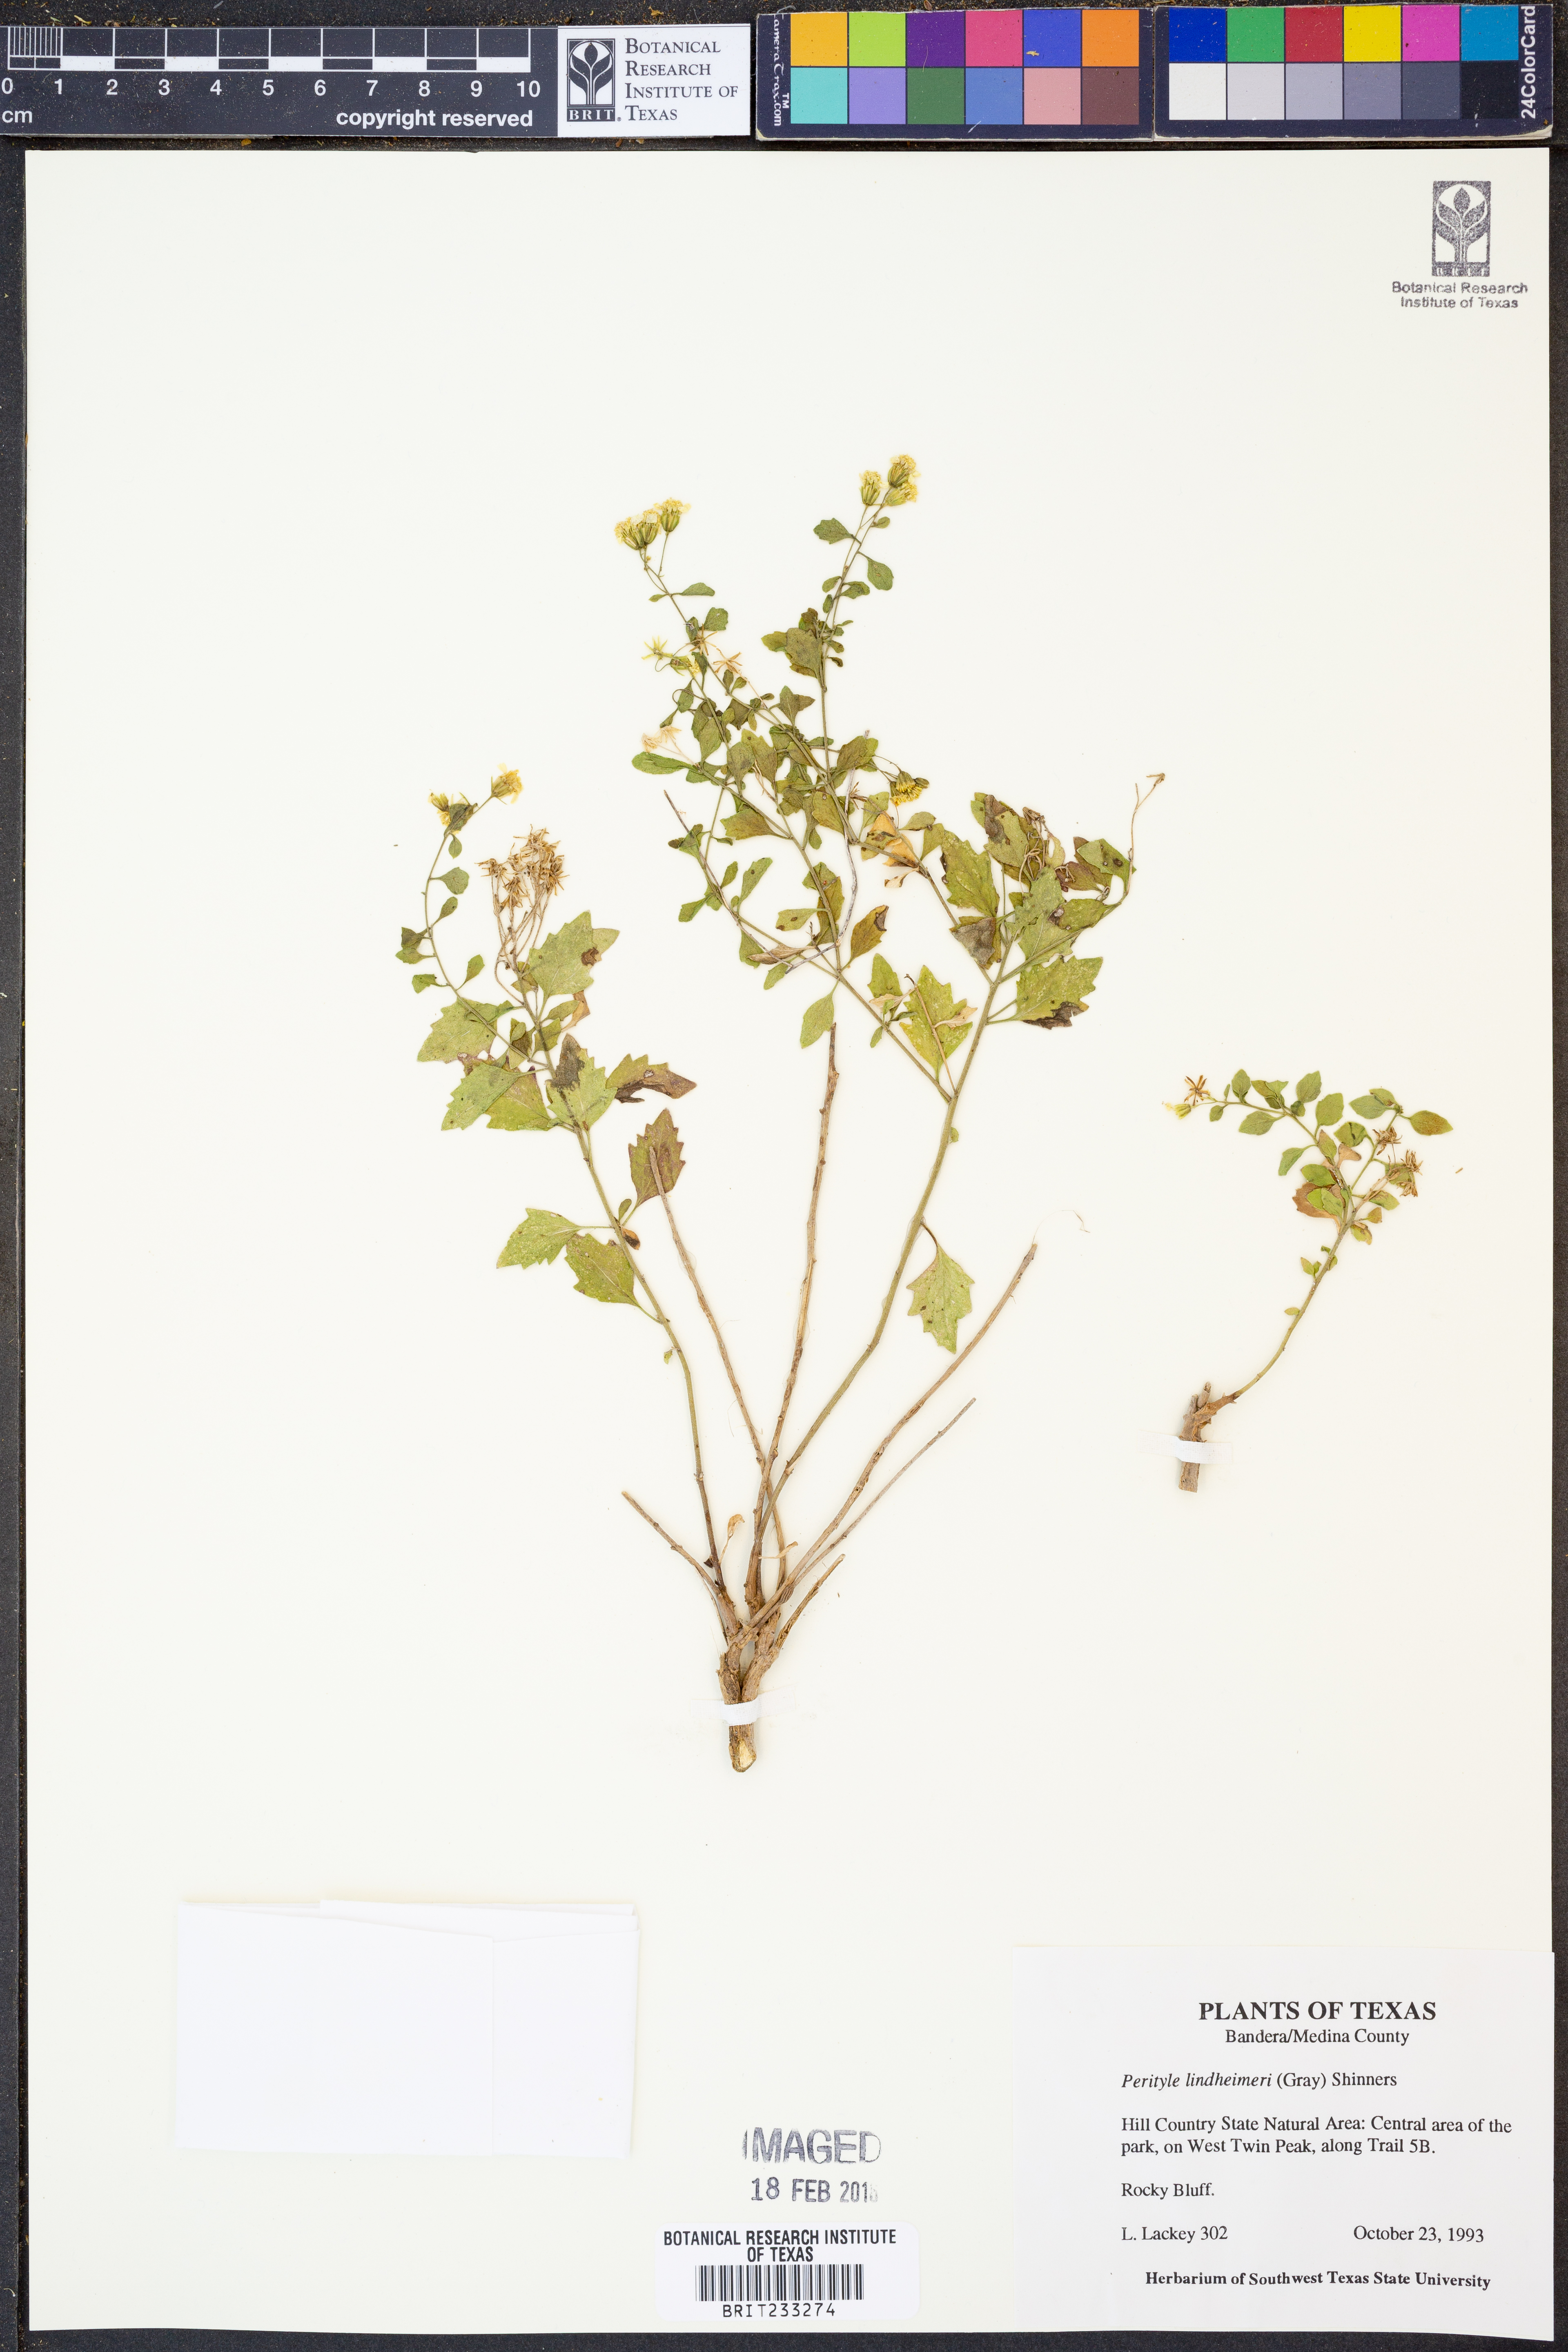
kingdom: Plantae
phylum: Tracheophyta
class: Magnoliopsida
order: Asterales
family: Asteraceae
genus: Laphamia
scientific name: Laphamia lindheimeri
